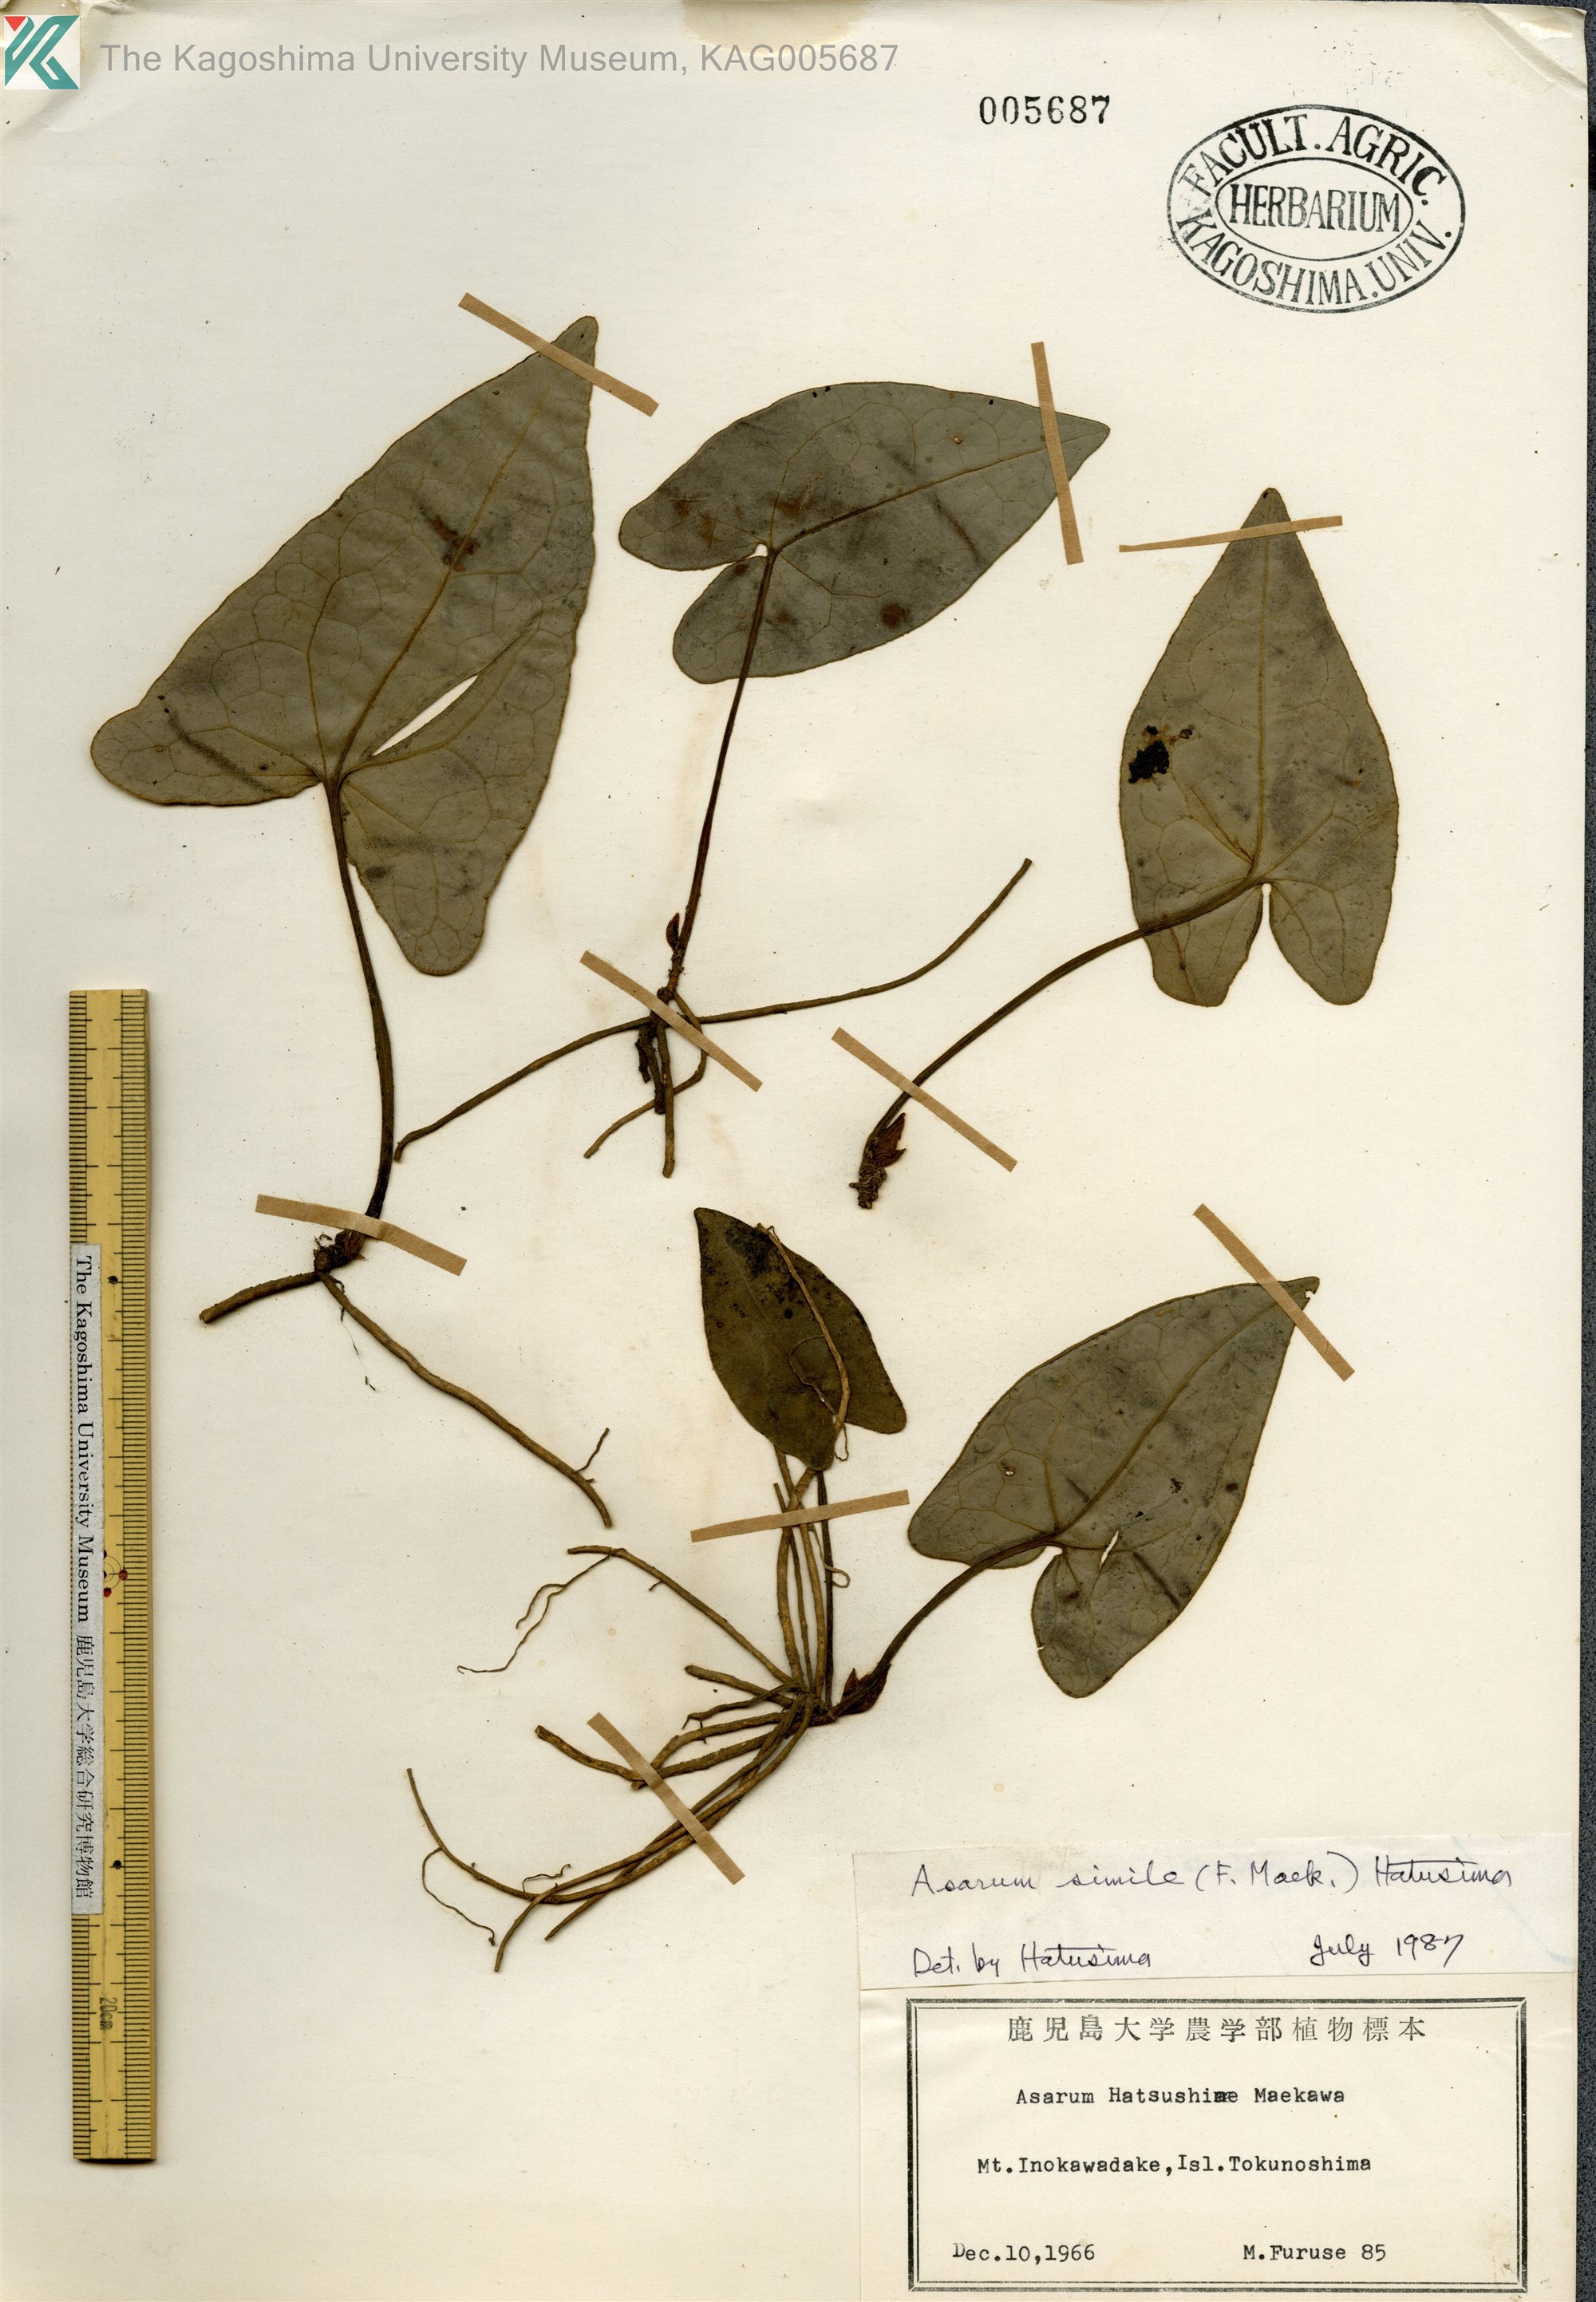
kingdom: Plantae
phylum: Tracheophyta
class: Magnoliopsida
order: Piperales
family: Aristolochiaceae
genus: Asarum
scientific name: Asarum simile
